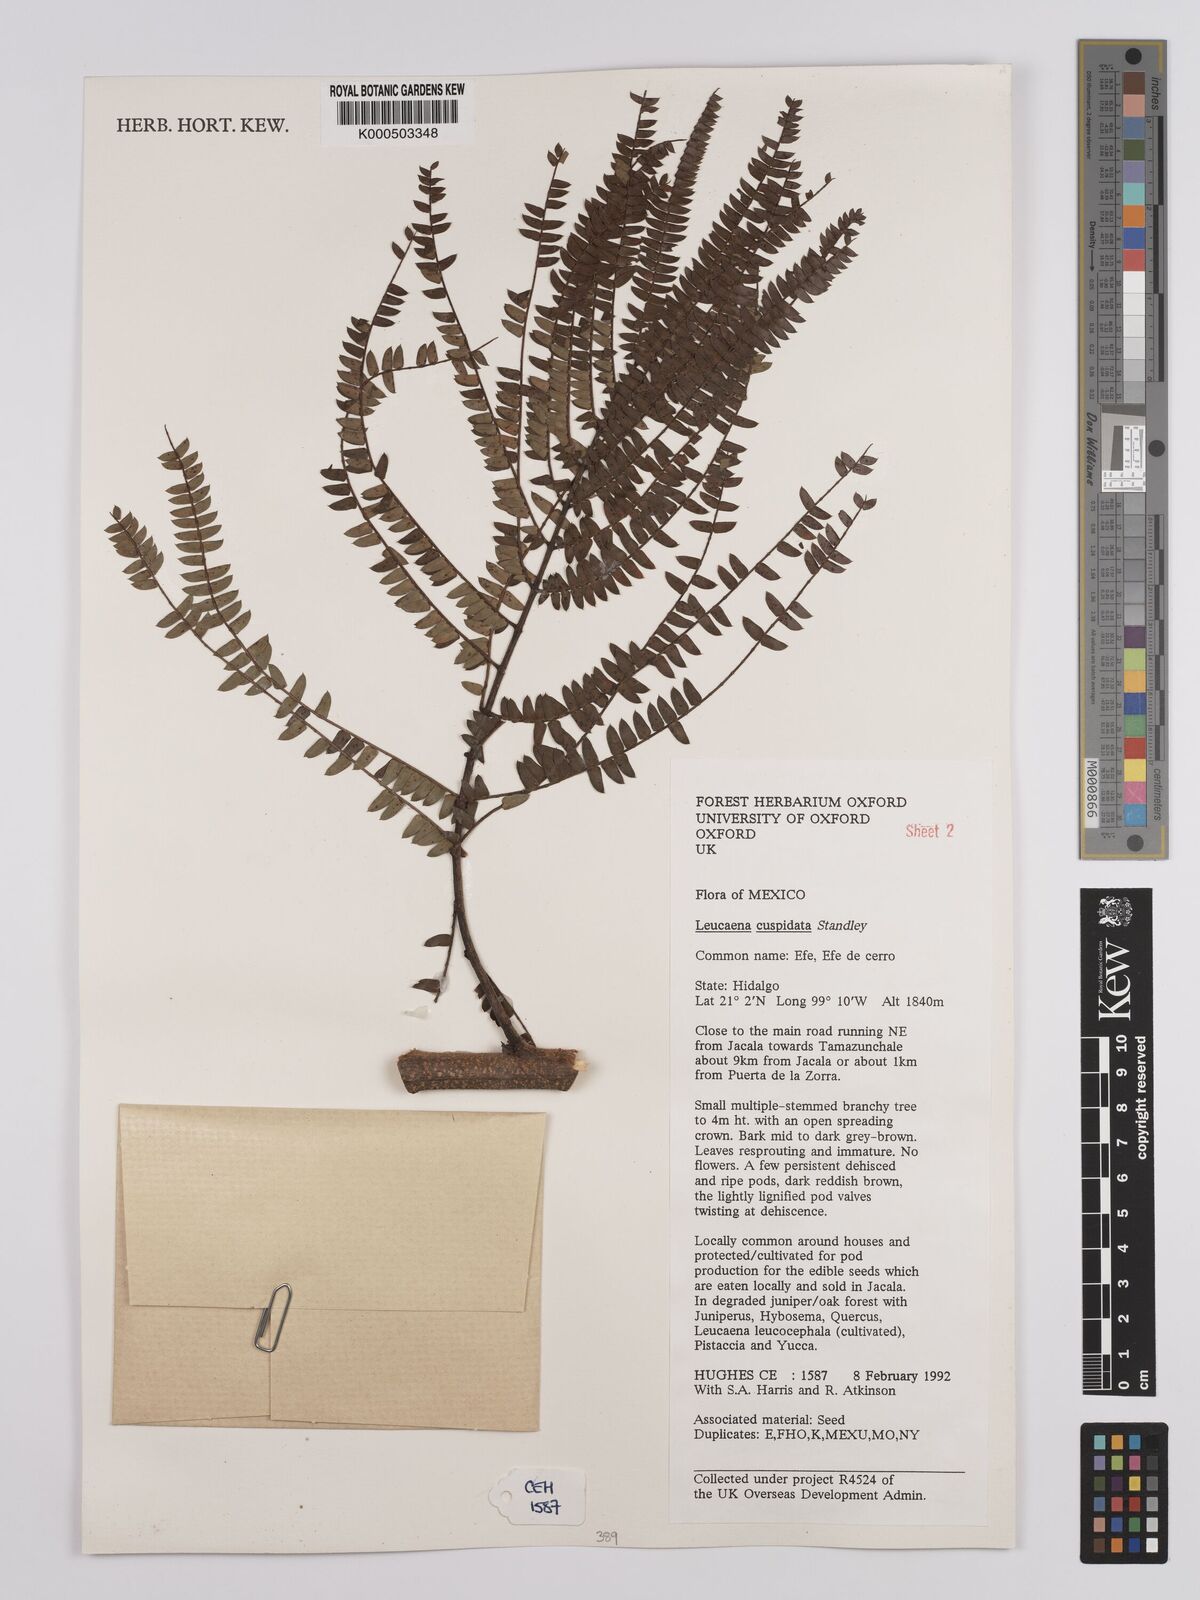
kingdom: Plantae
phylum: Tracheophyta
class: Magnoliopsida
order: Fabales
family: Fabaceae
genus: Leucaena
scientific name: Leucaena cuspidata
